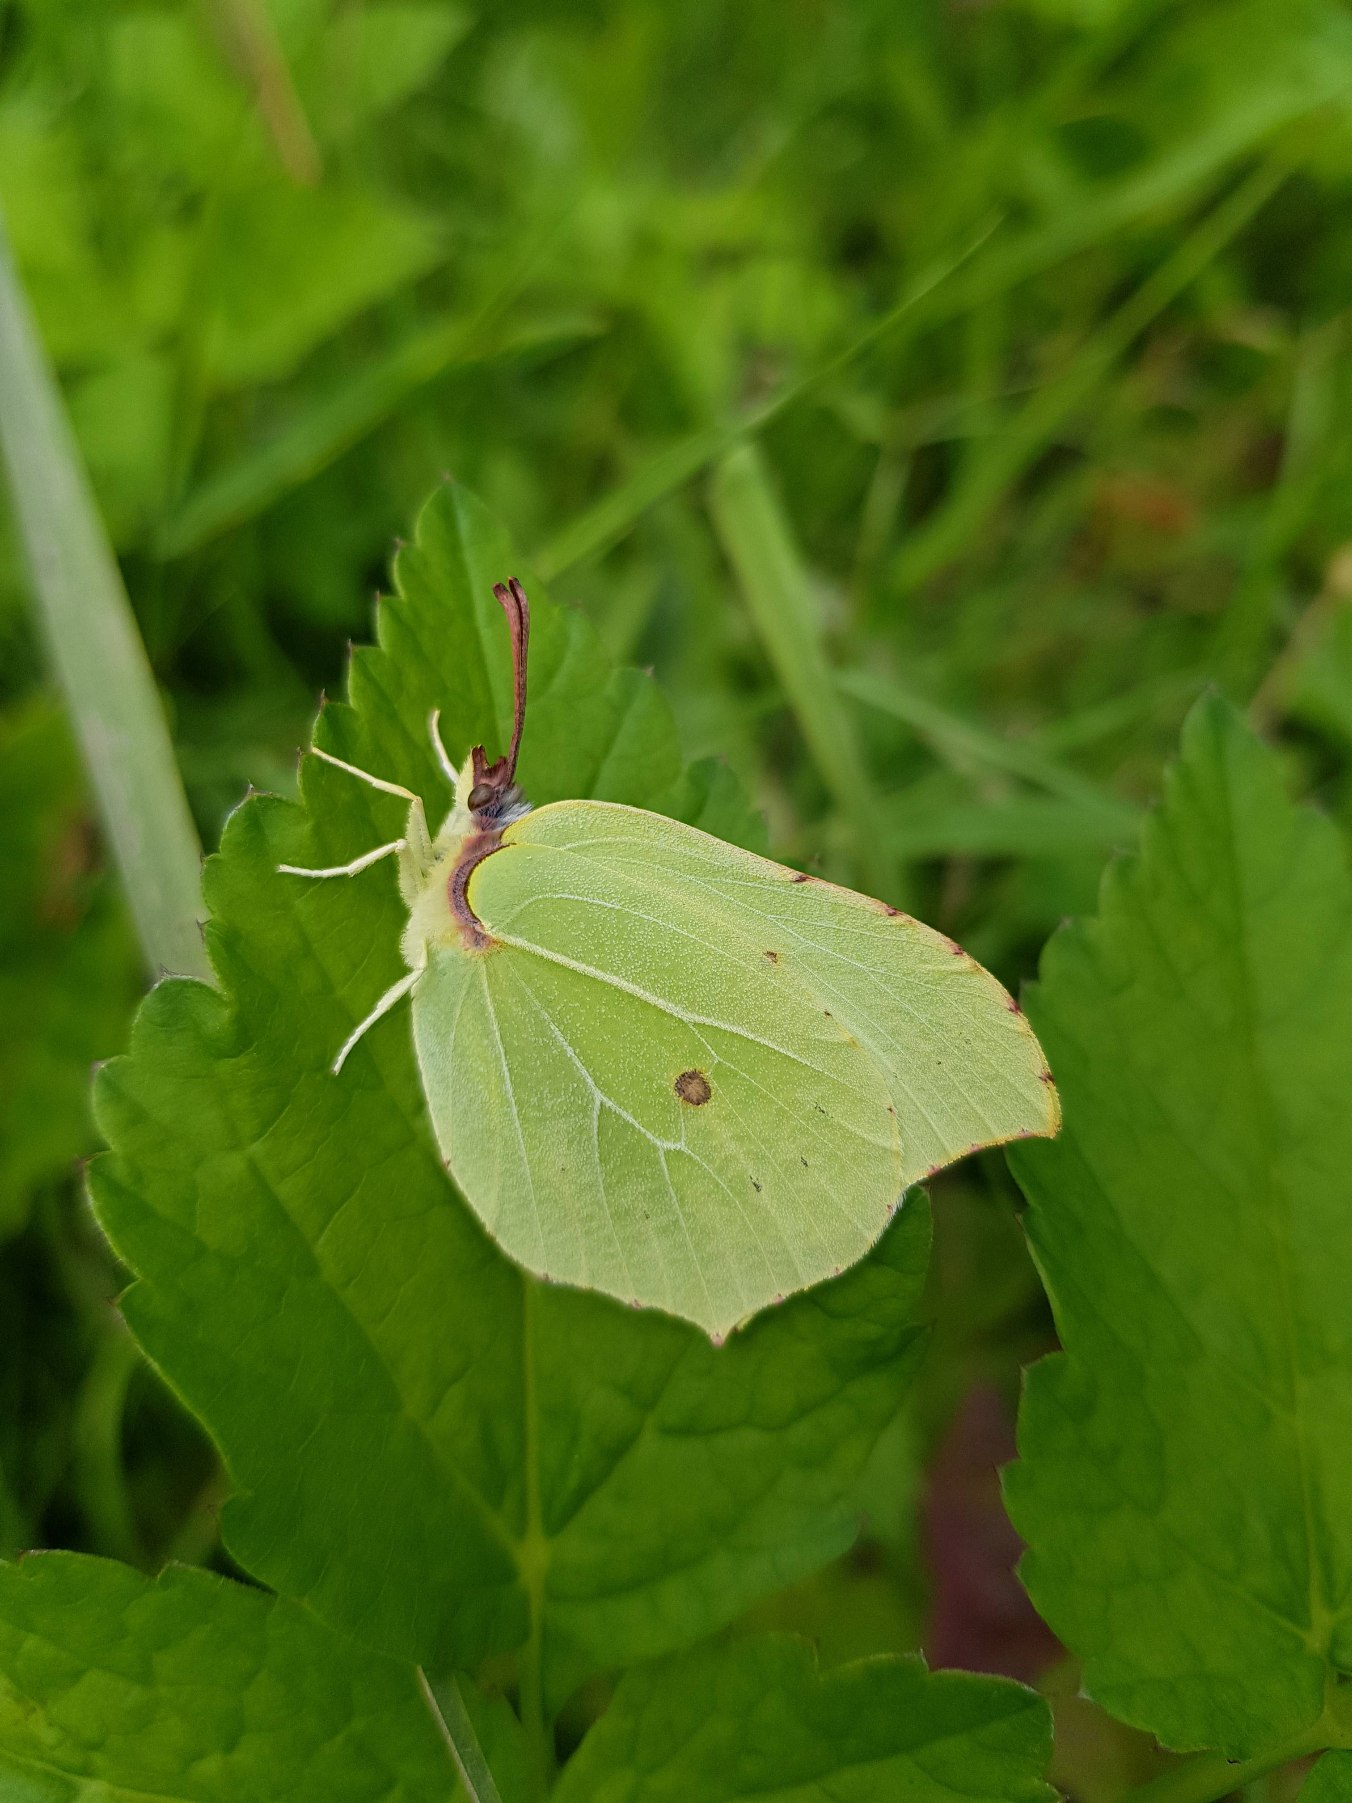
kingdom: Animalia
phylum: Arthropoda
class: Insecta
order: Lepidoptera
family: Pieridae
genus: Gonepteryx
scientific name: Gonepteryx rhamni
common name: Citronsommerfugl
